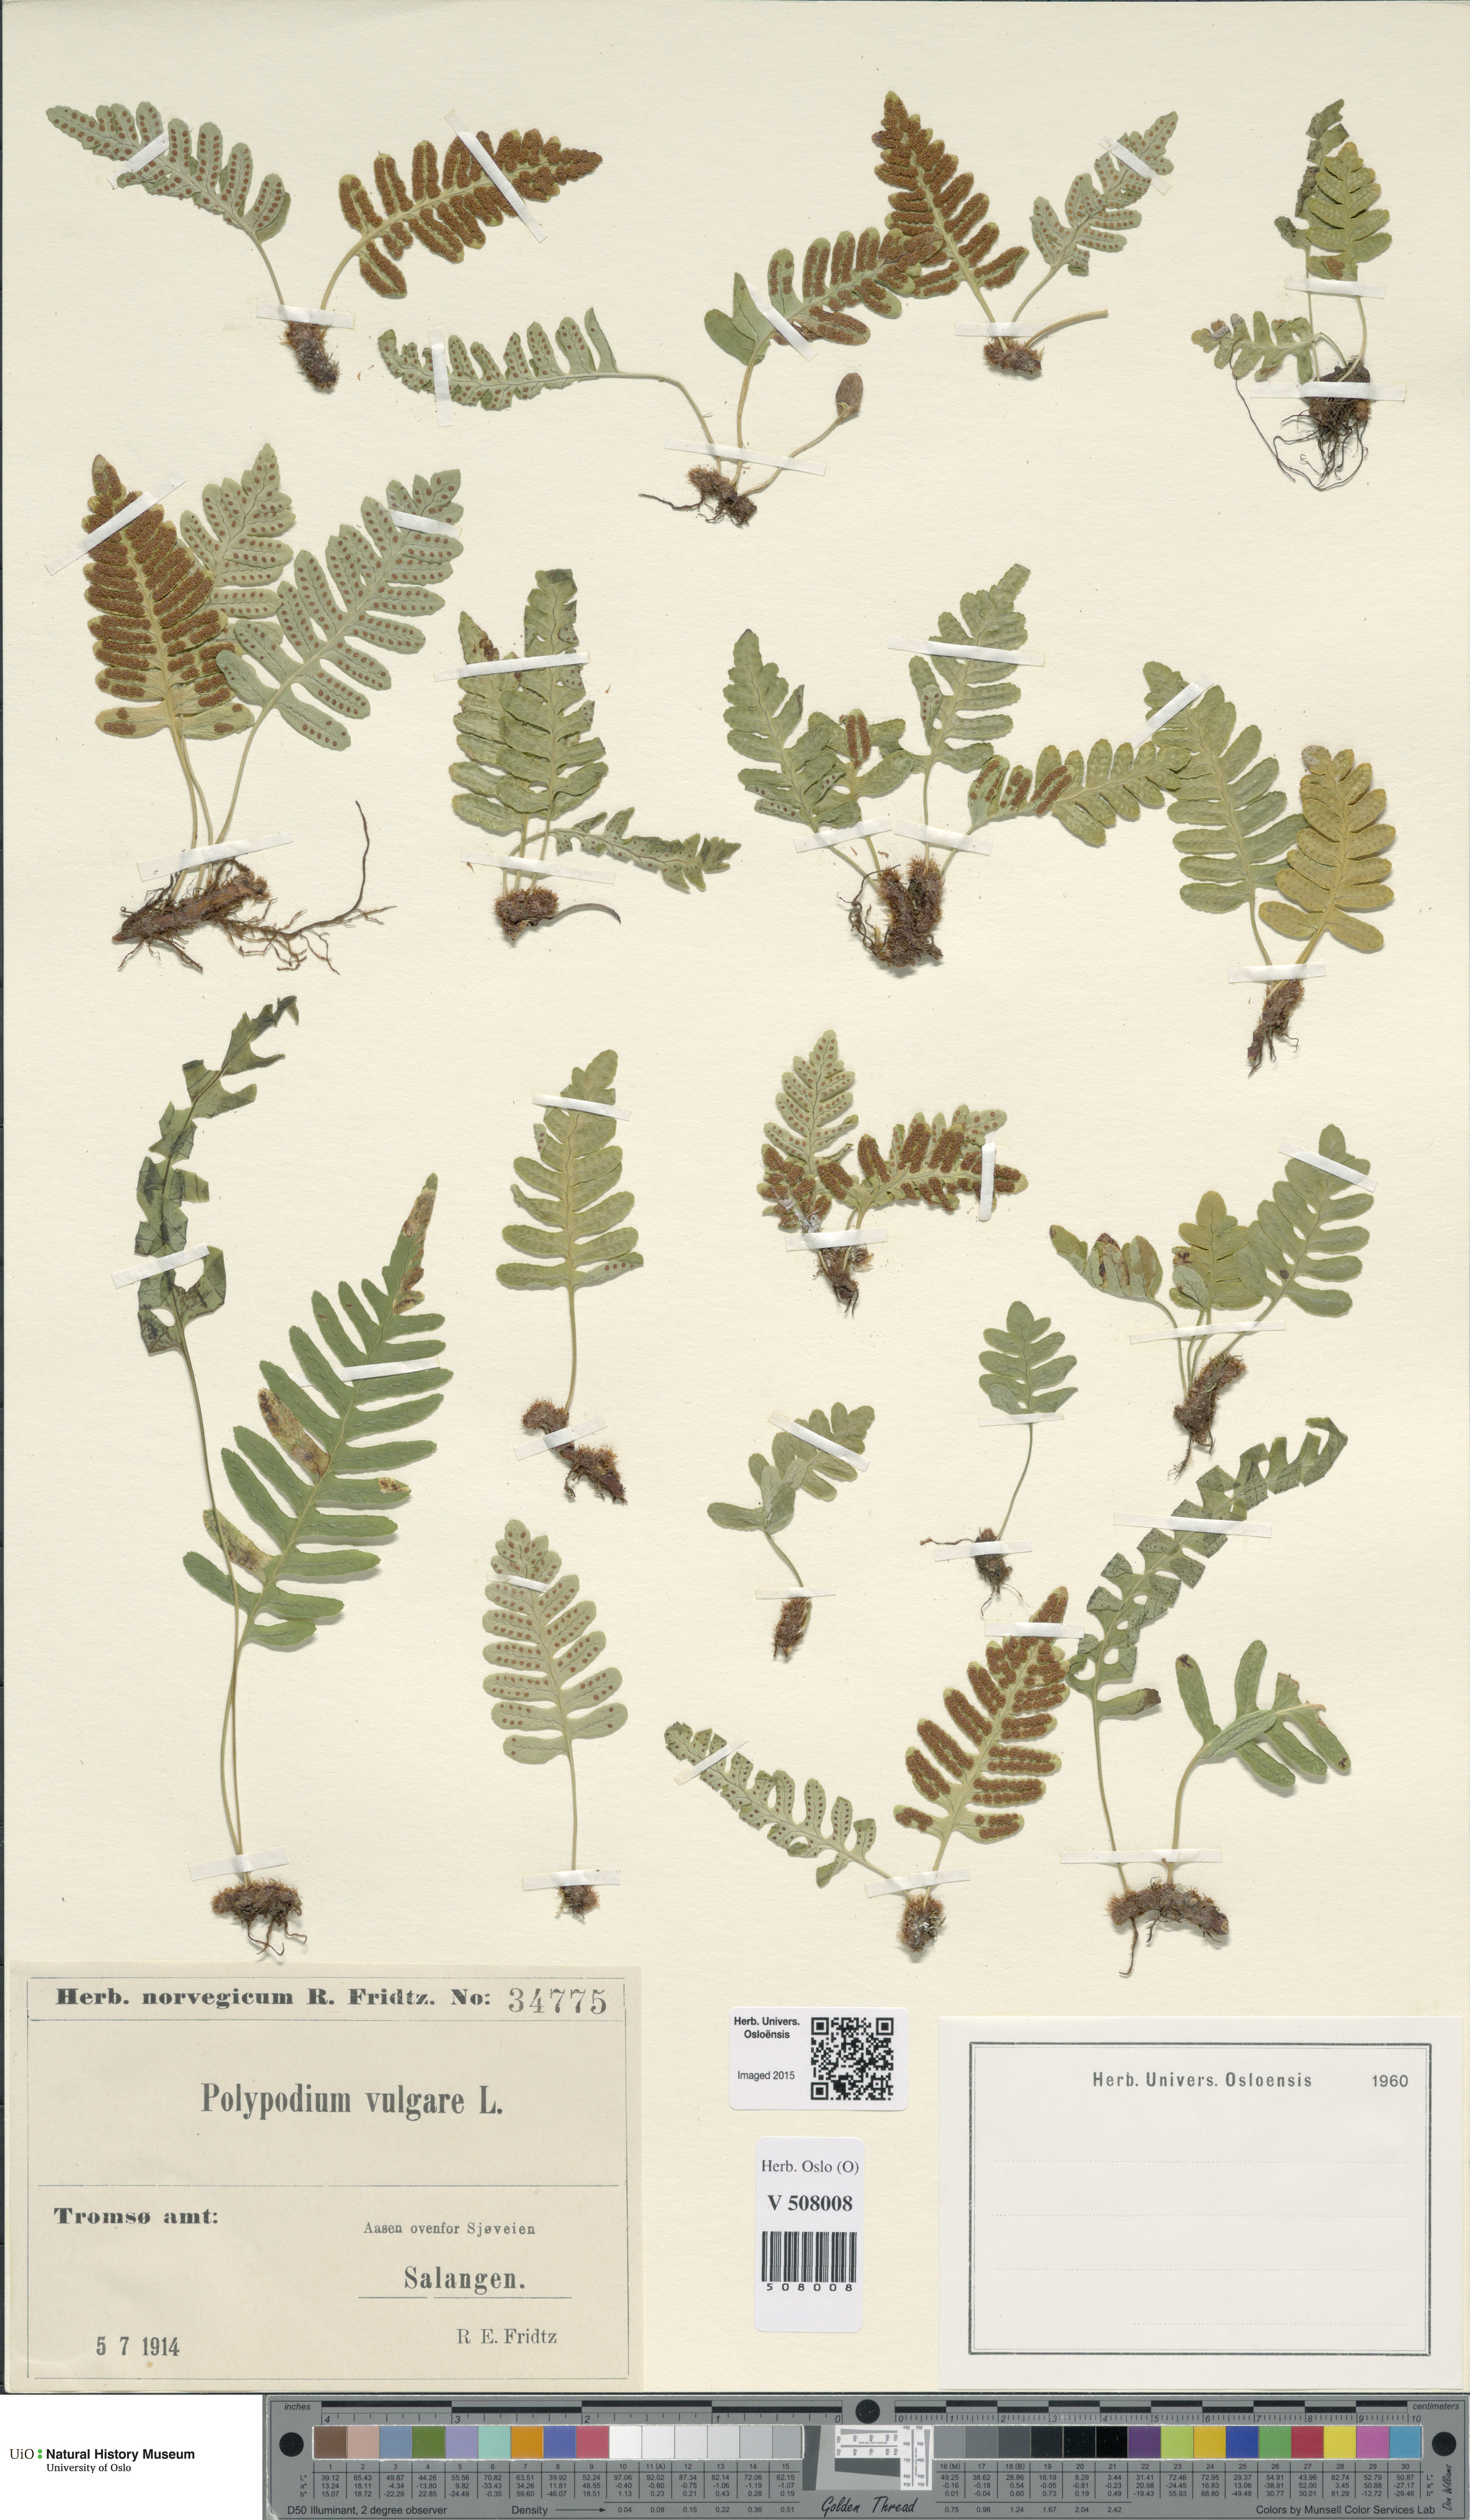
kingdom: Plantae
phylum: Tracheophyta
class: Polypodiopsida
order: Polypodiales
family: Polypodiaceae
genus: Polypodium
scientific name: Polypodium vulgare
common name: Common polypody
